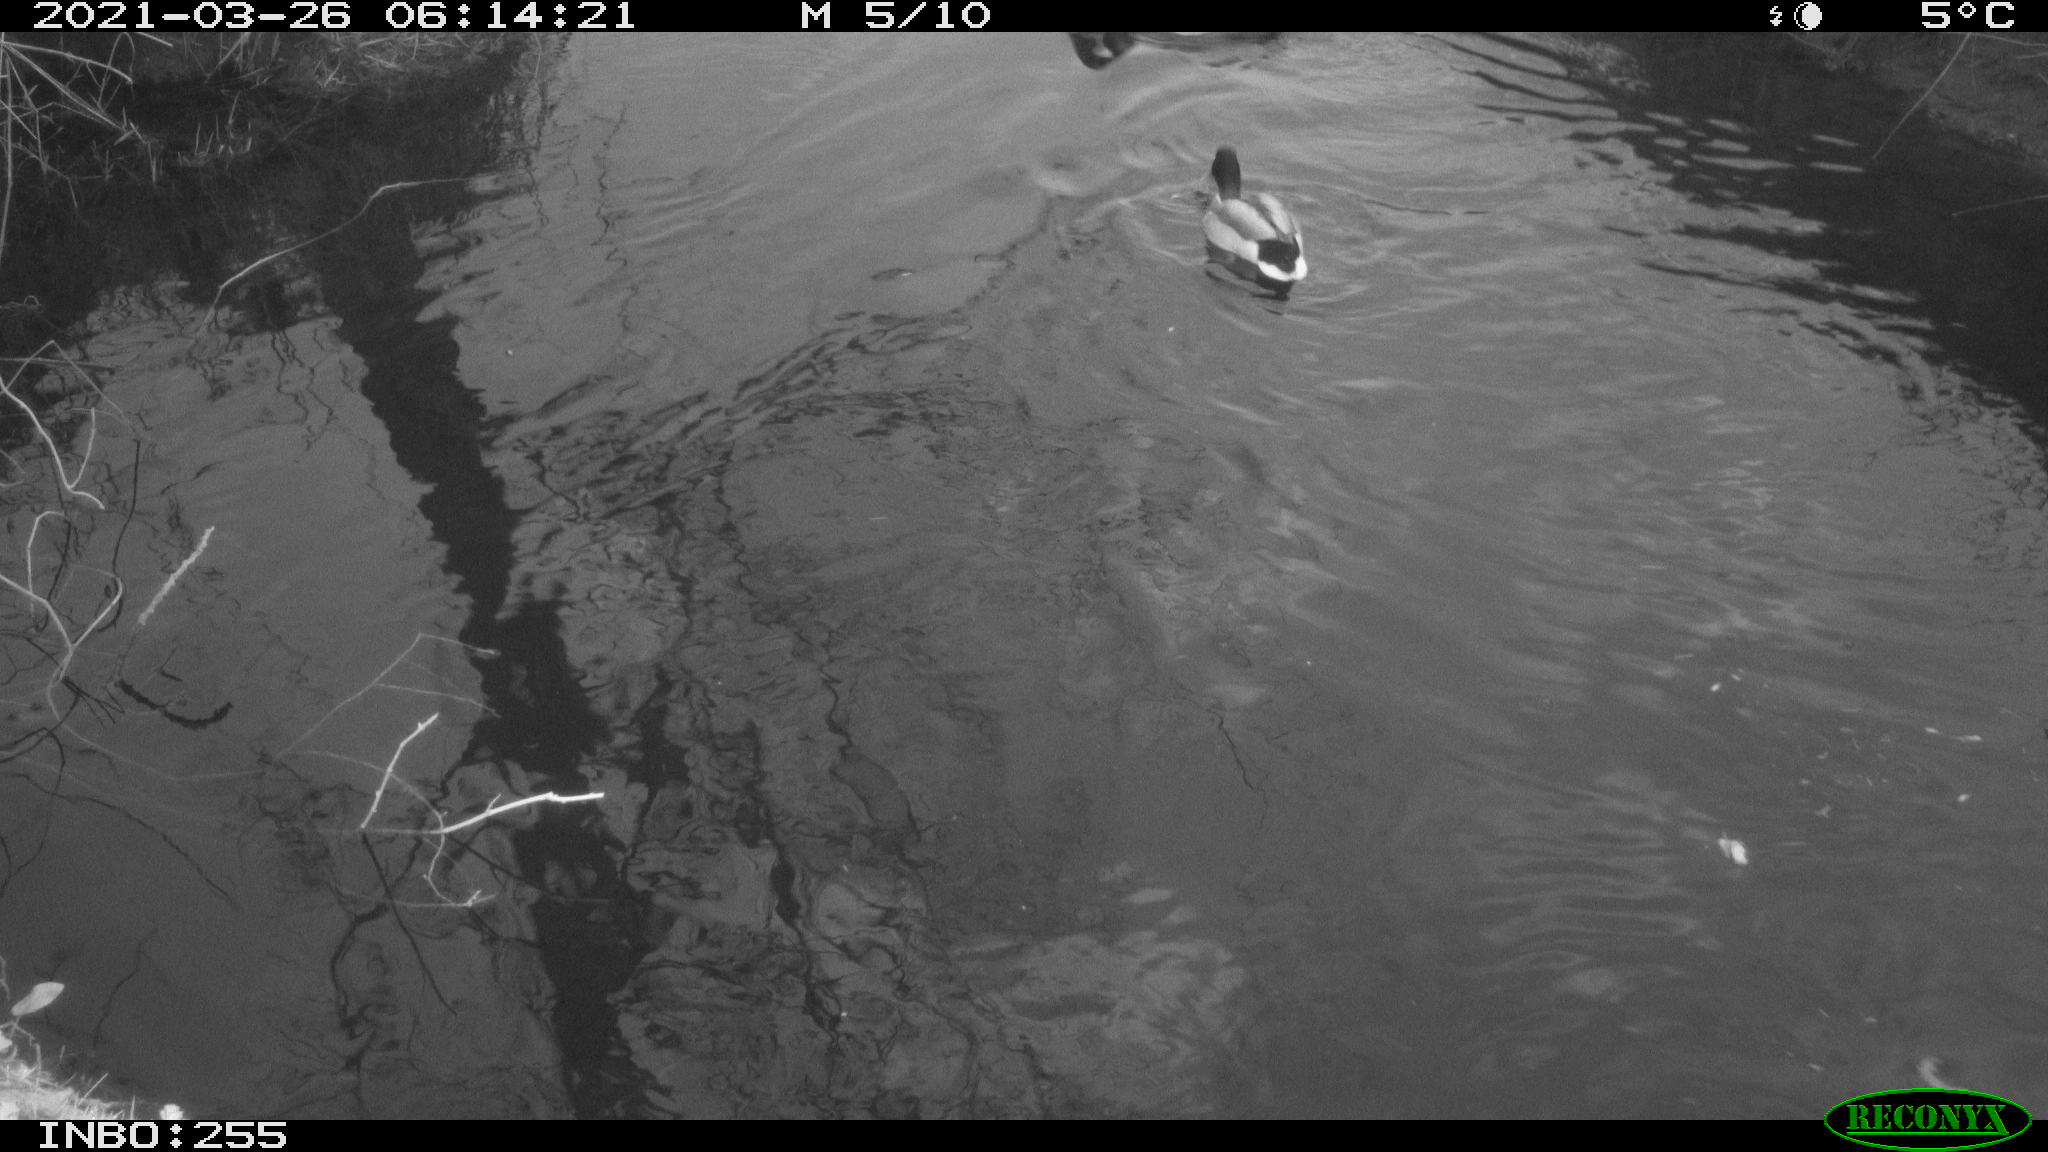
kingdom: Animalia
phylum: Chordata
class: Aves
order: Anseriformes
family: Anatidae
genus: Anas
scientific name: Anas platyrhynchos
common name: Mallard
